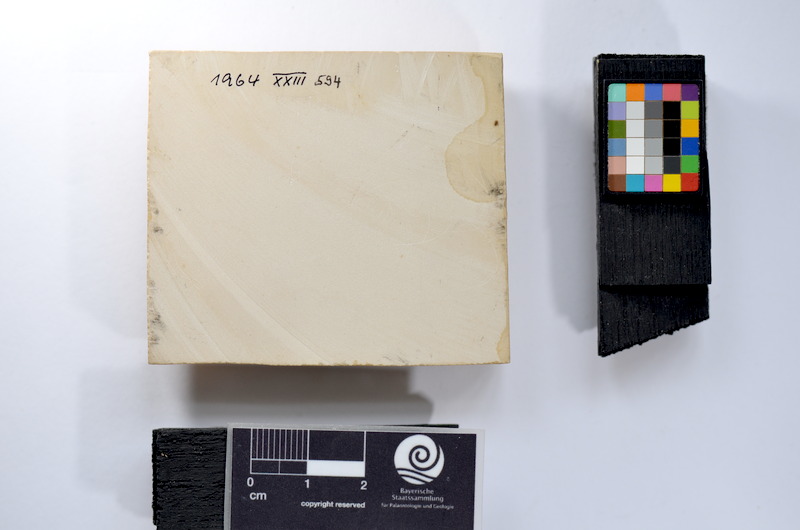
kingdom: Animalia
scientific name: Animalia
